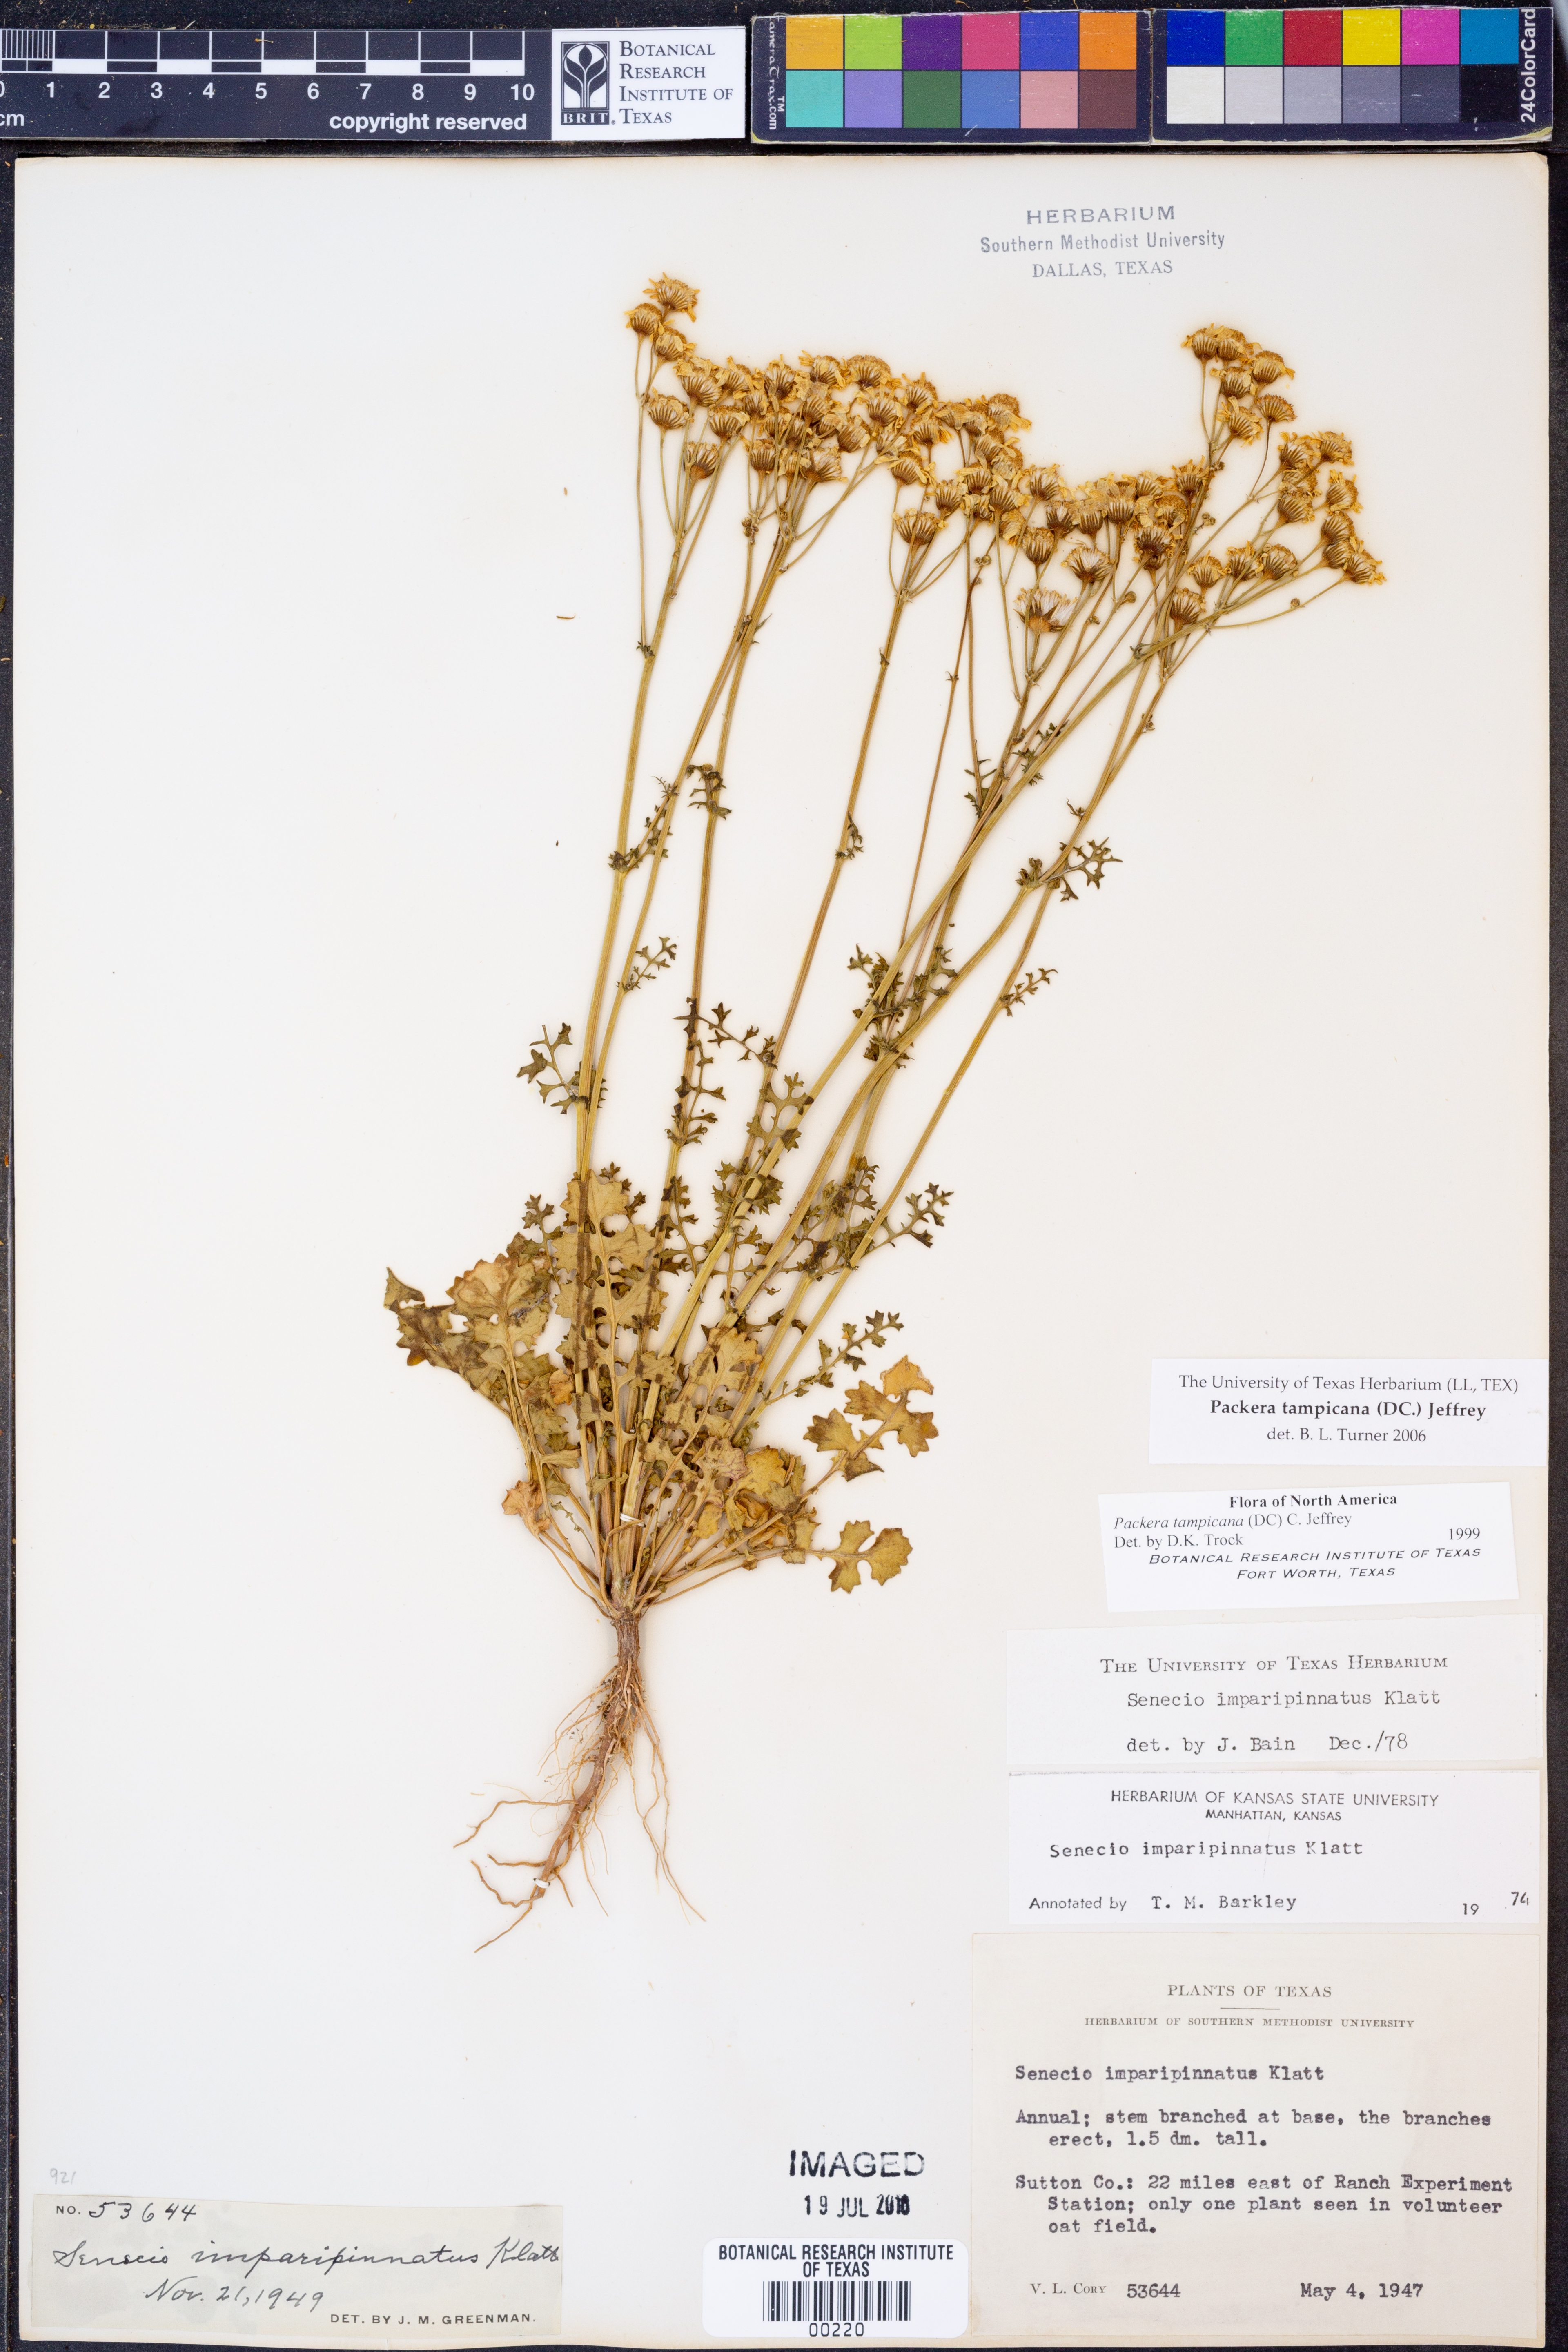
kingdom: Plantae
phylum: Tracheophyta
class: Magnoliopsida
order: Asterales
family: Asteraceae
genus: Packera
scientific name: Packera tampicana
